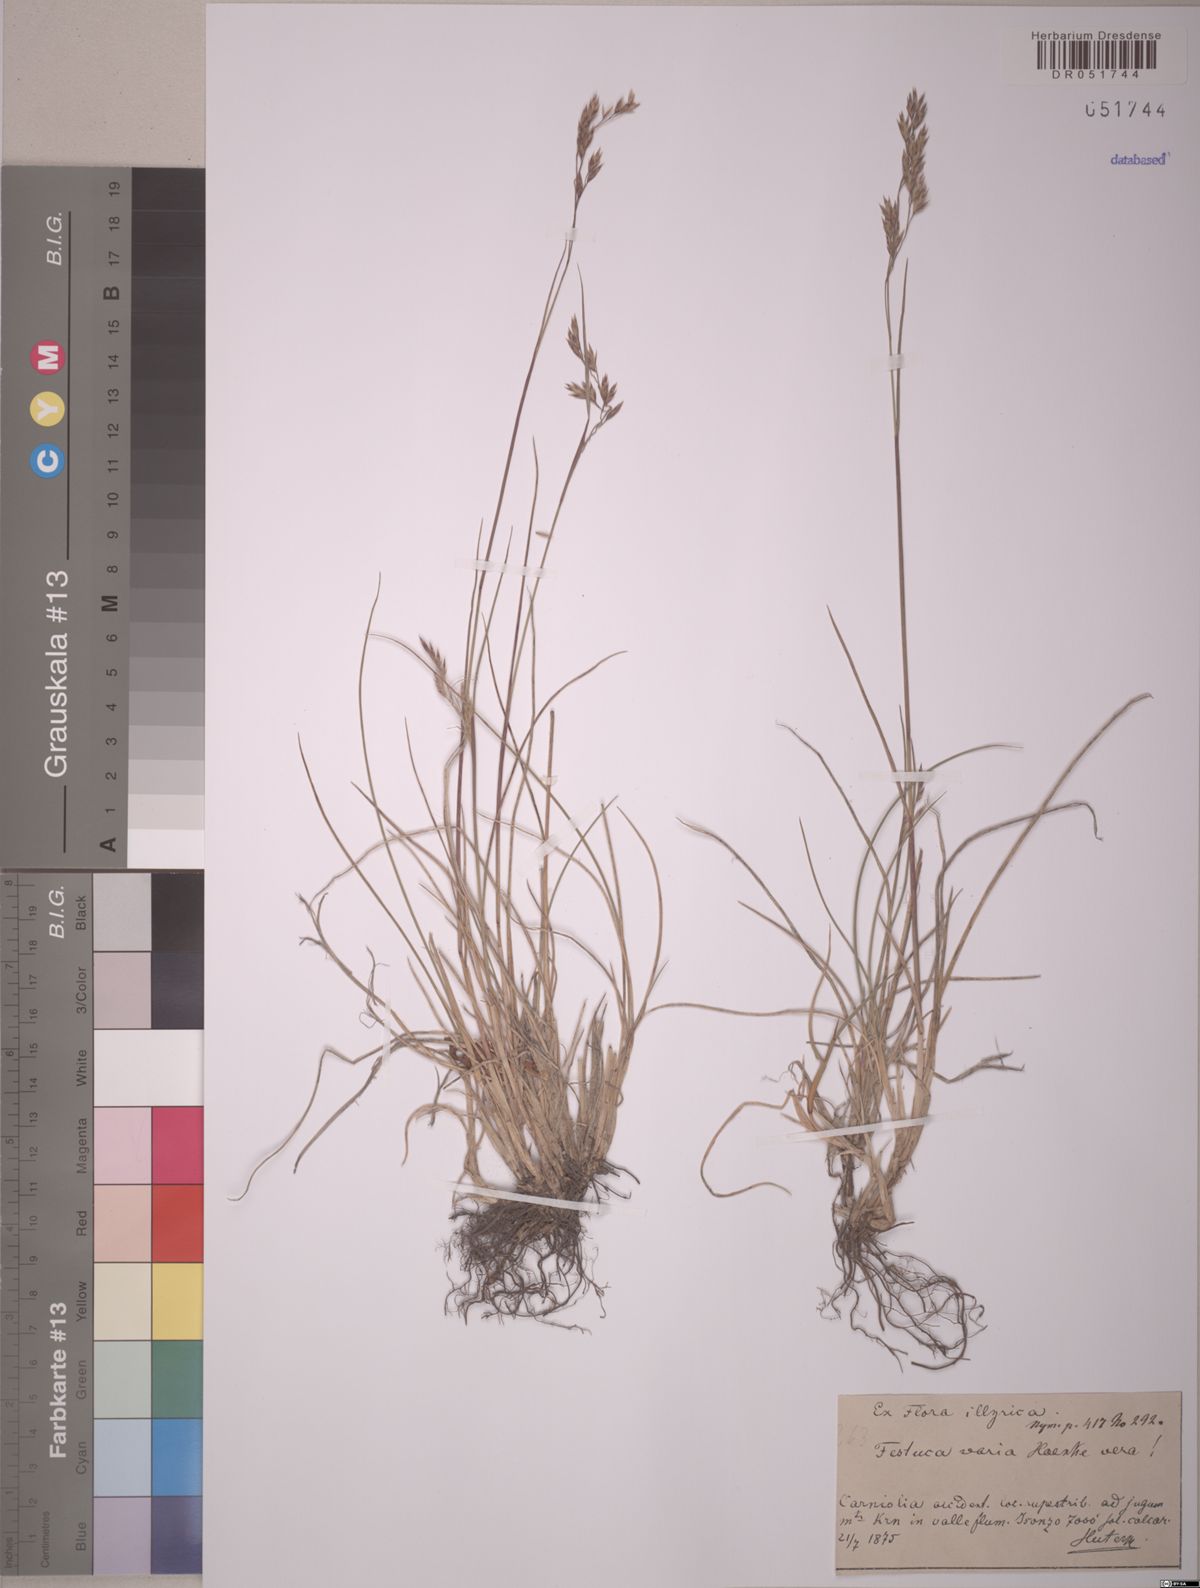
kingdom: Plantae
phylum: Tracheophyta
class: Liliopsida
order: Poales
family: Poaceae
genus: Festuca
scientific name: Festuca varia
